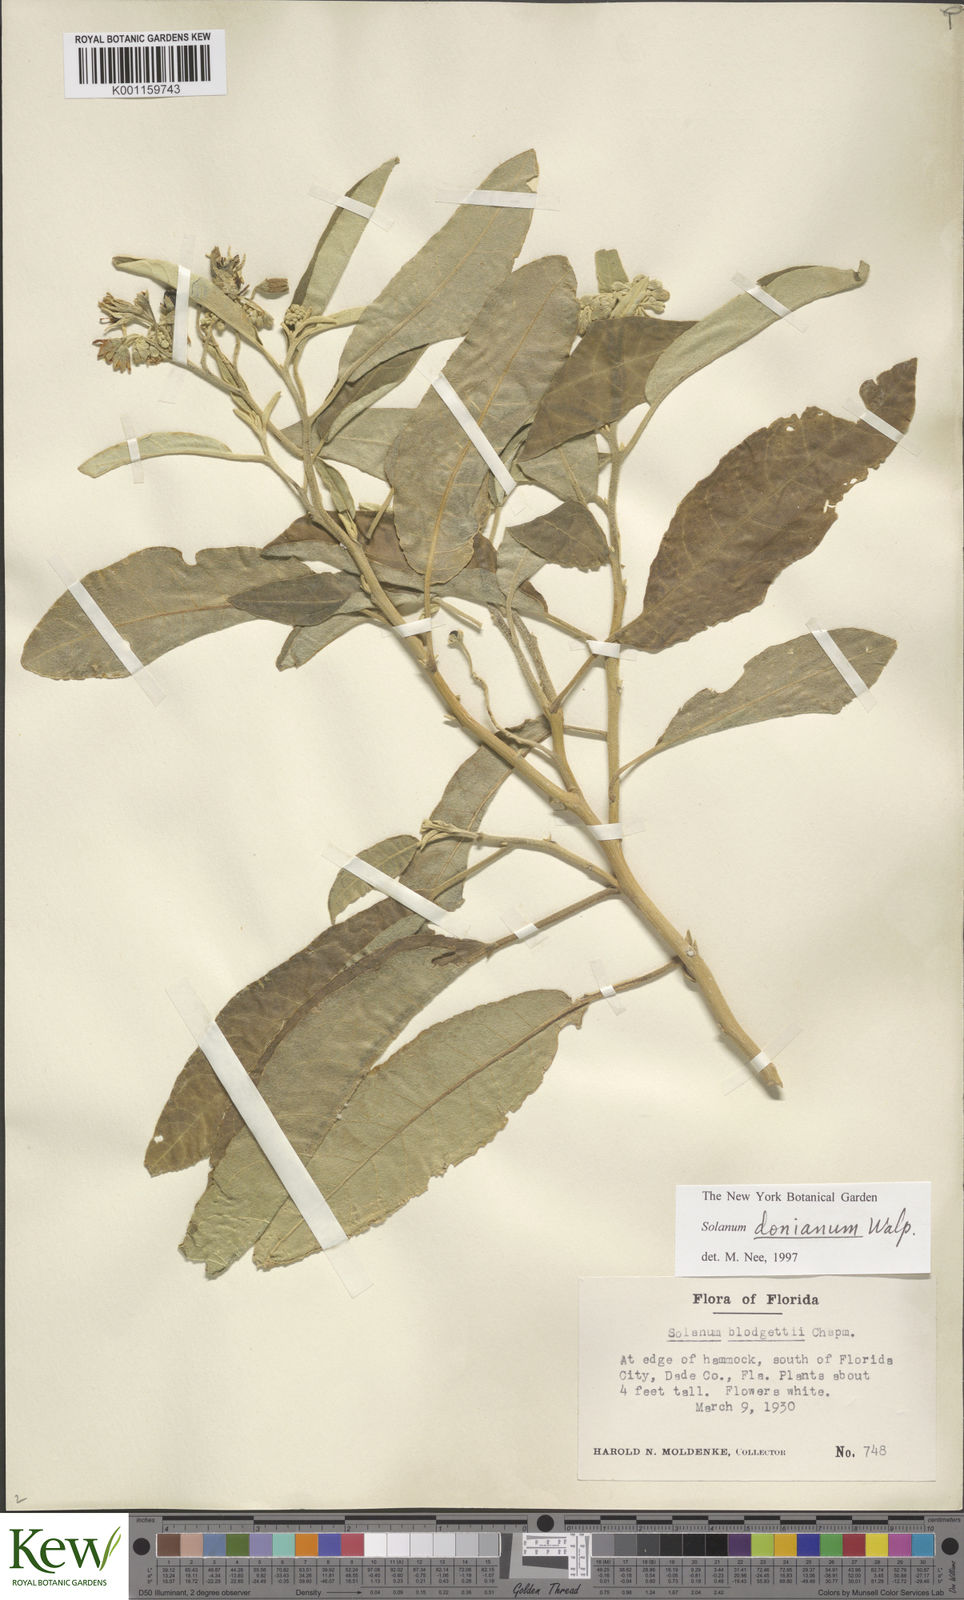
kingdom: Plantae
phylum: Tracheophyta
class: Magnoliopsida
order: Solanales
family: Solanaceae
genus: Solanum
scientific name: Solanum donianum
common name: Mullein nightshade
